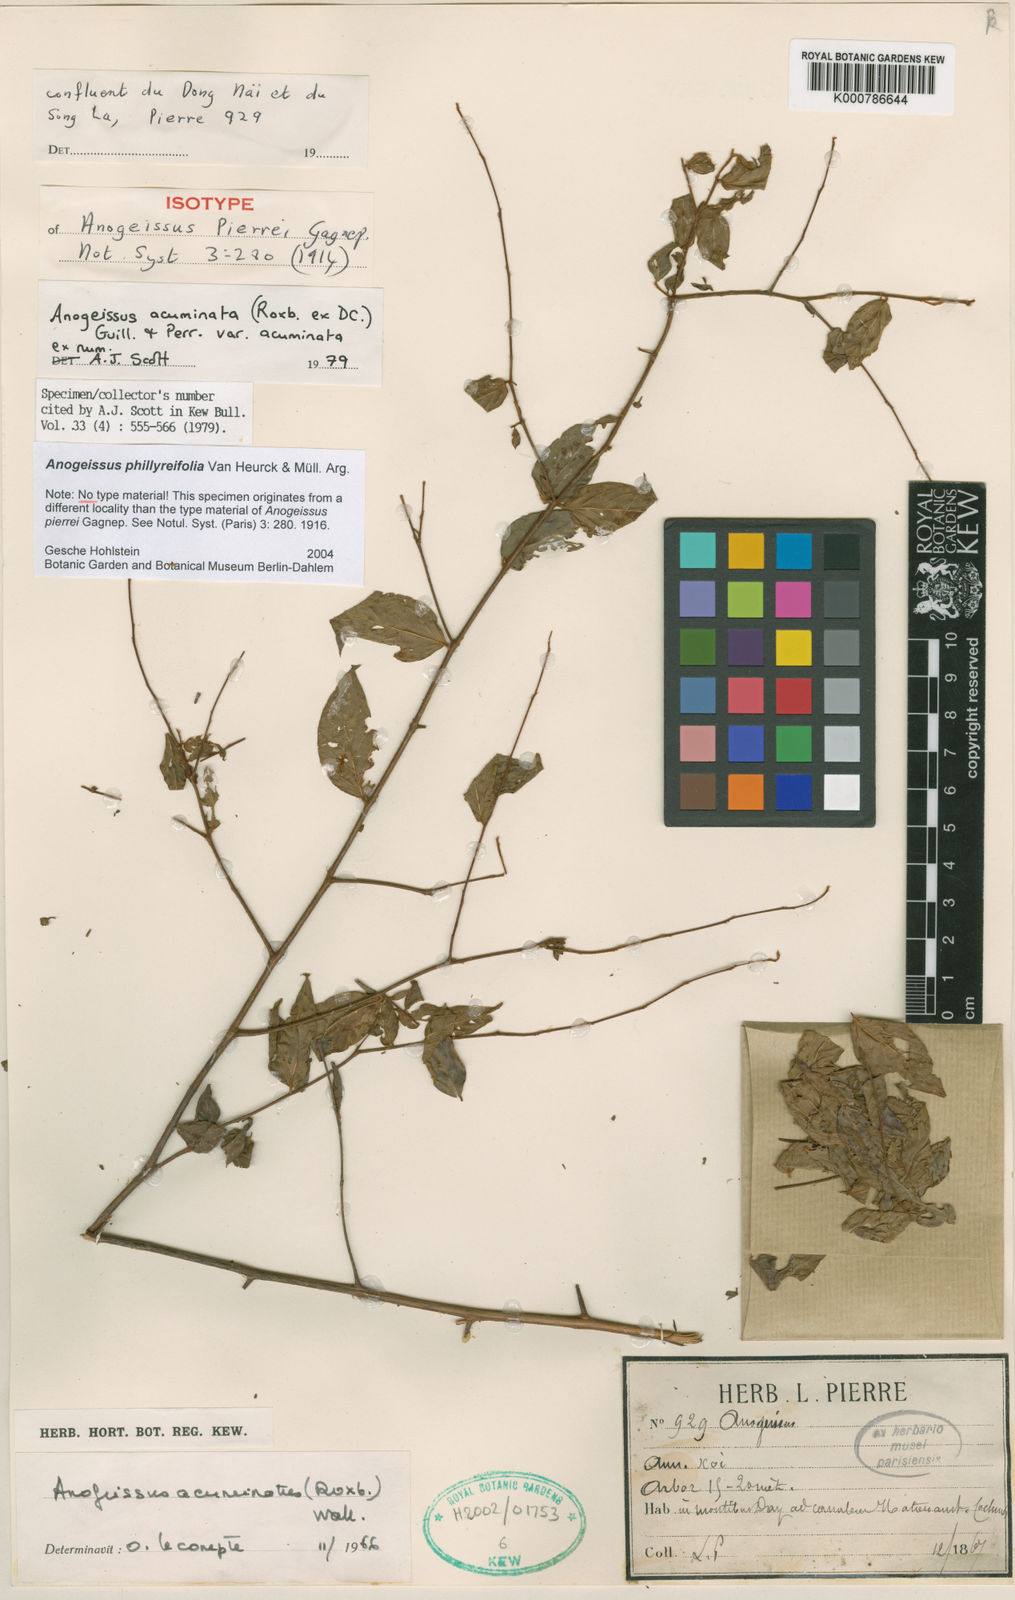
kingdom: Plantae
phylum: Tracheophyta
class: Magnoliopsida
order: Myrtales
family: Combretaceae
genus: Anogeissus
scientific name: Anogeissus
